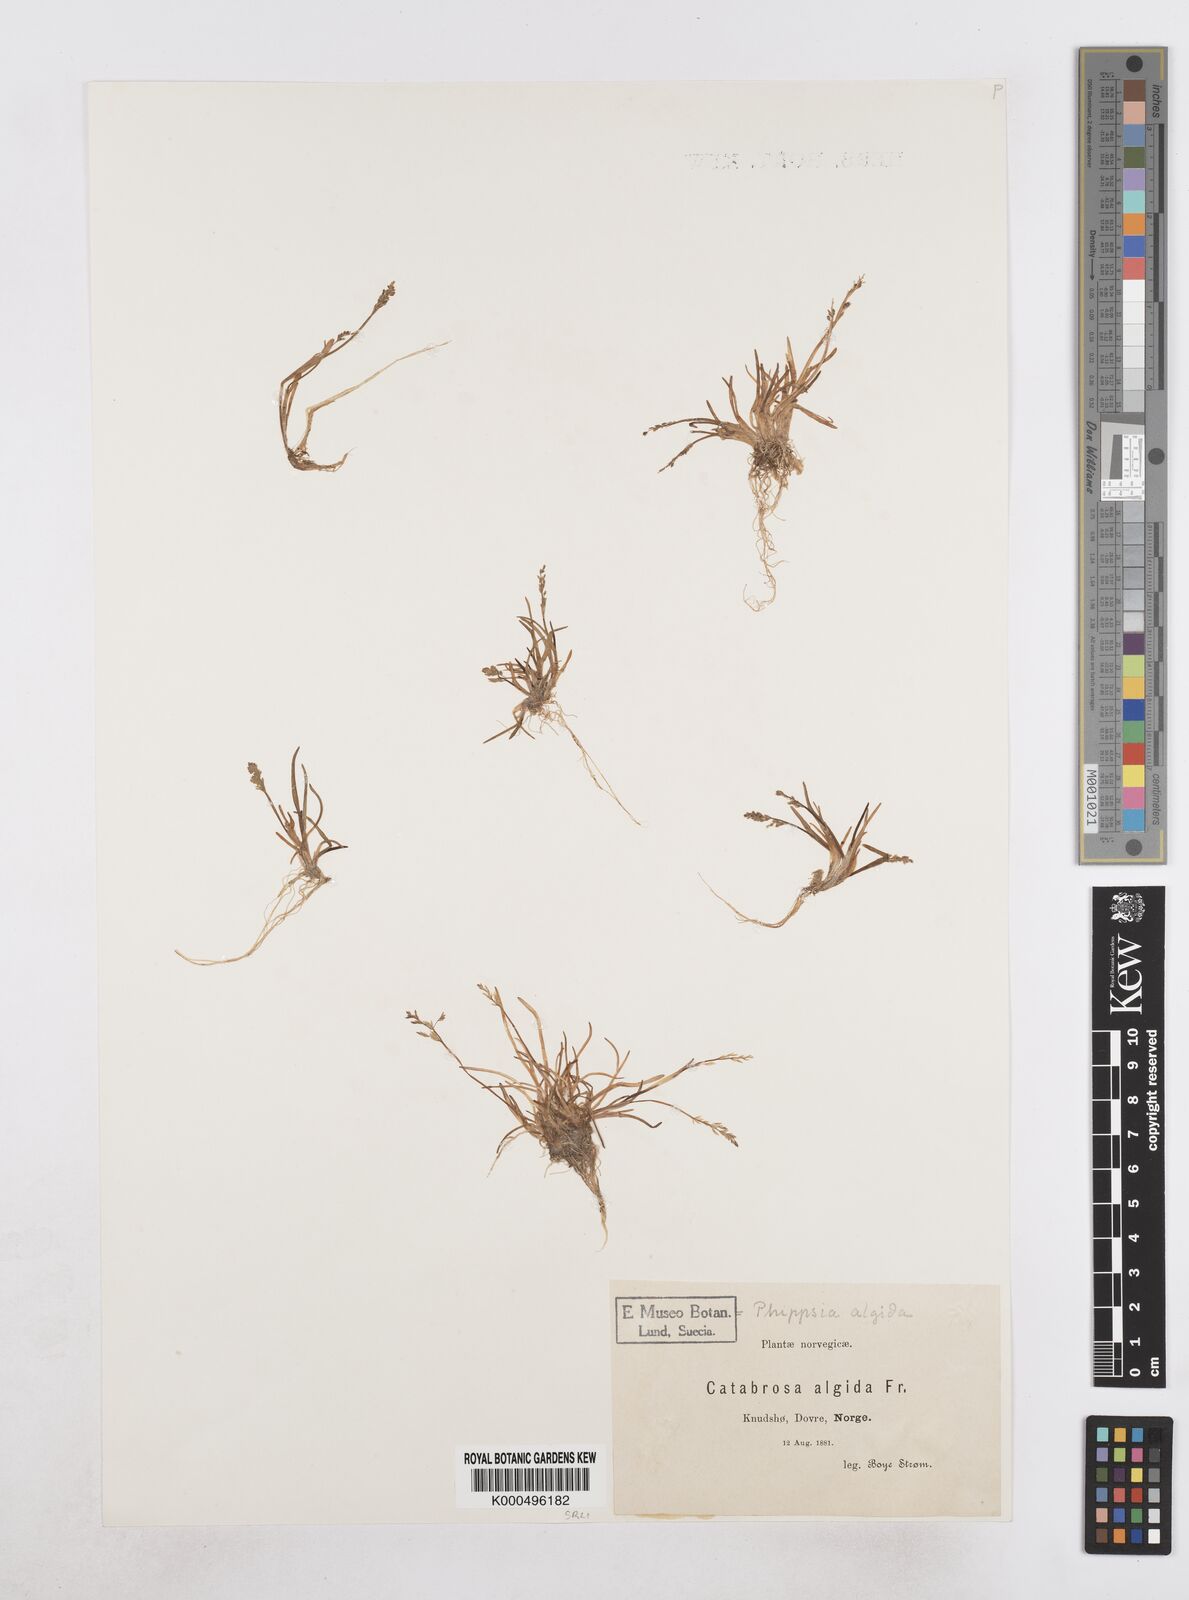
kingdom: Plantae
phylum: Tracheophyta
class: Liliopsida
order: Poales
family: Poaceae
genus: Phippsia
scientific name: Phippsia algida
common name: Ice grass
